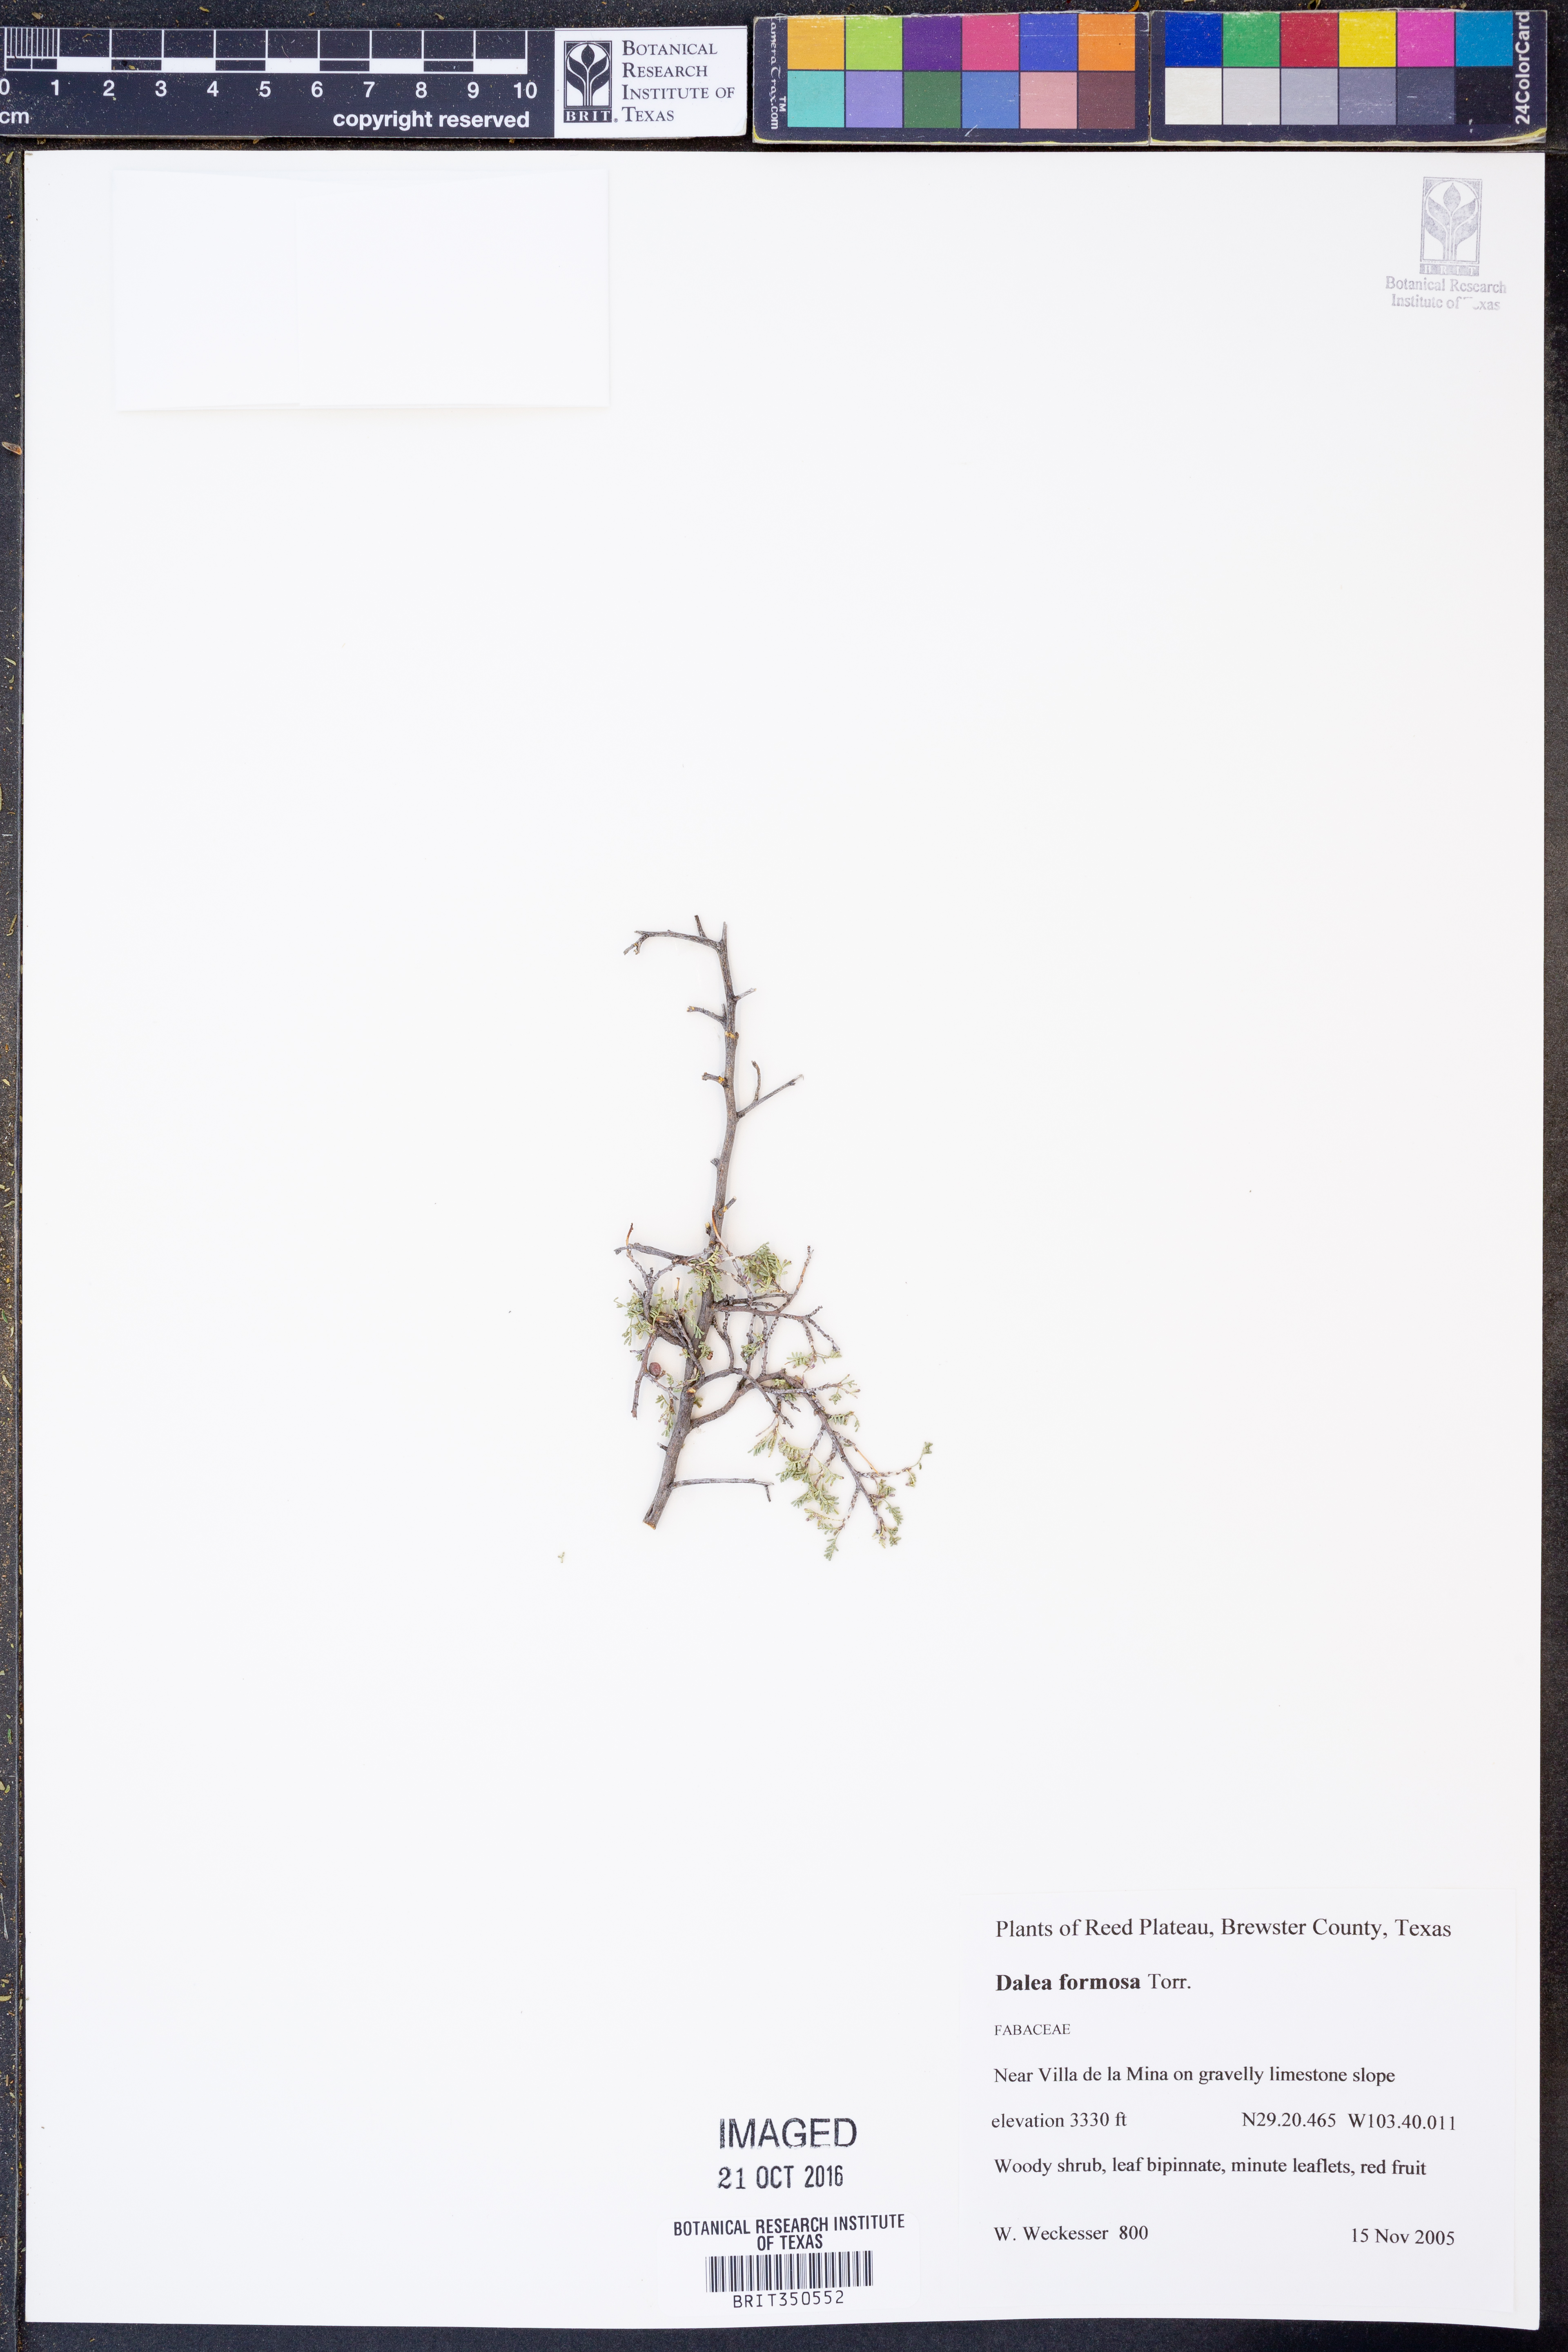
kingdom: Plantae
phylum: Tracheophyta
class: Magnoliopsida
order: Fabales
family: Fabaceae
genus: Dalea
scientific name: Dalea formosa
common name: Feather-plume dalea
